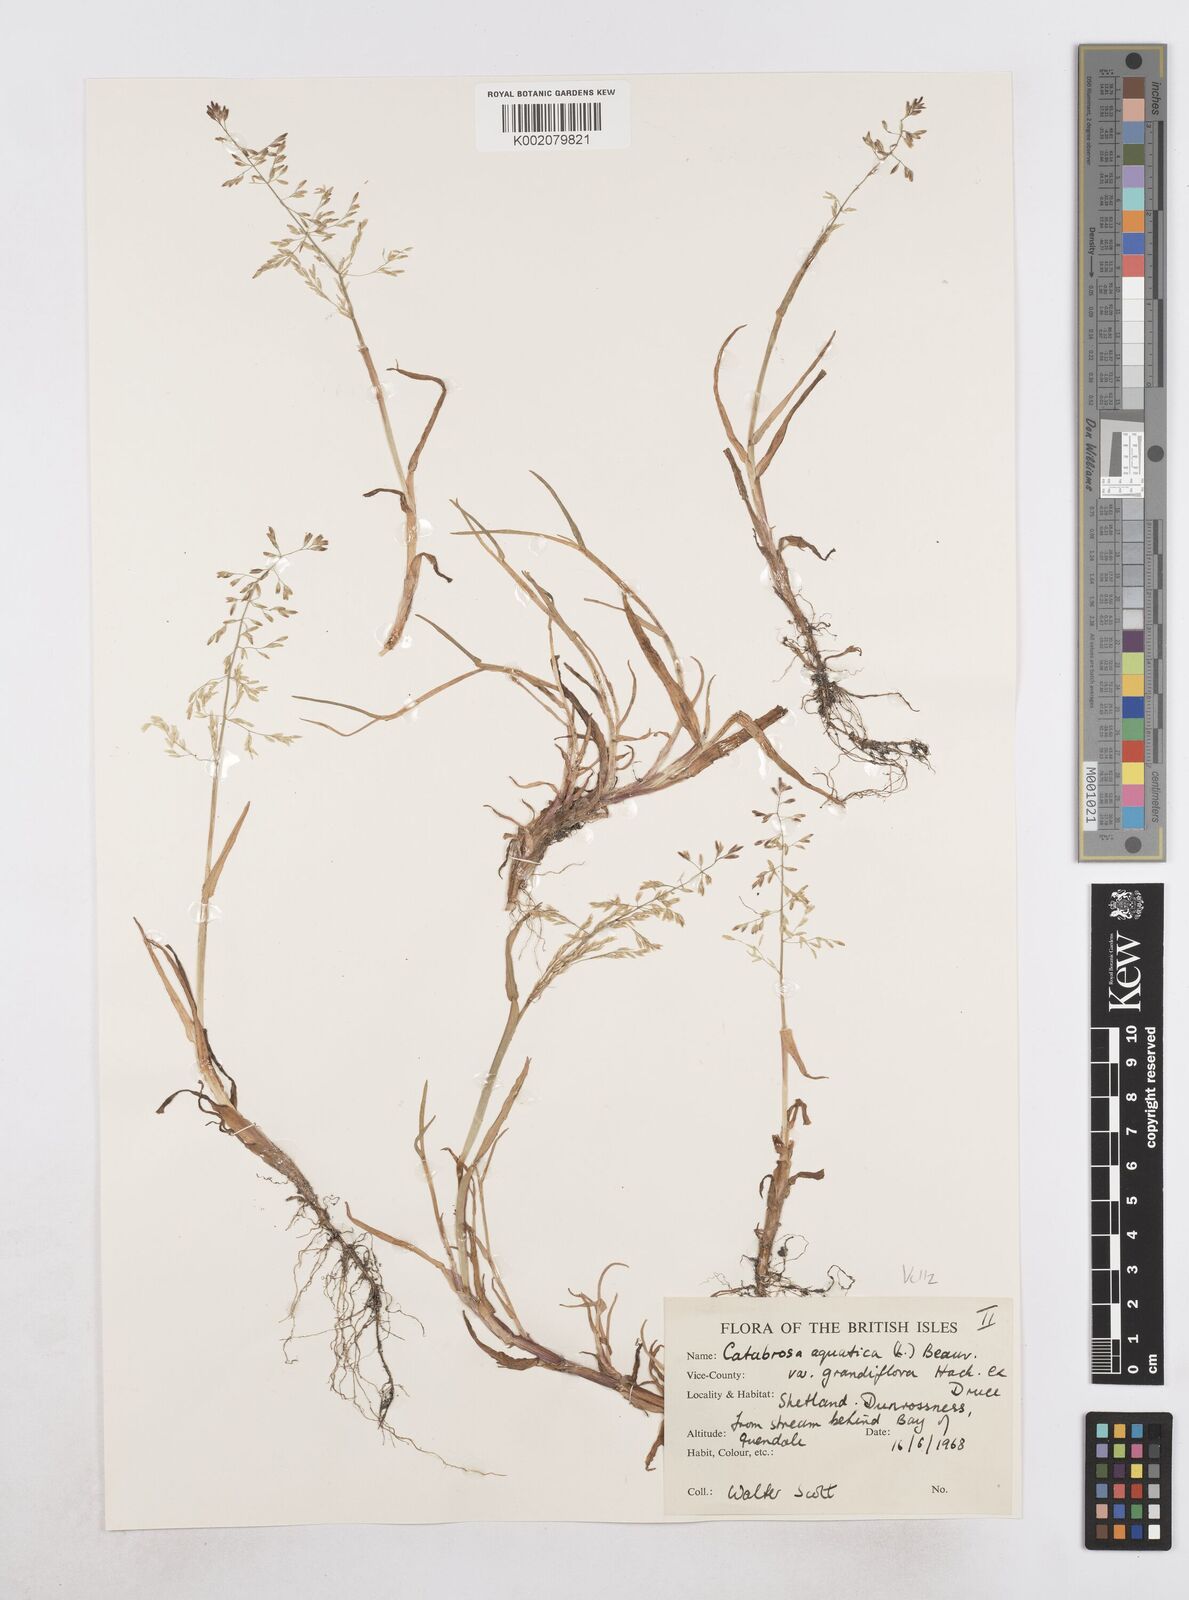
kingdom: Plantae
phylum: Tracheophyta
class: Liliopsida
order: Poales
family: Poaceae
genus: Catabrosa
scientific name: Catabrosa aquatica
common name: Whorl-grass
